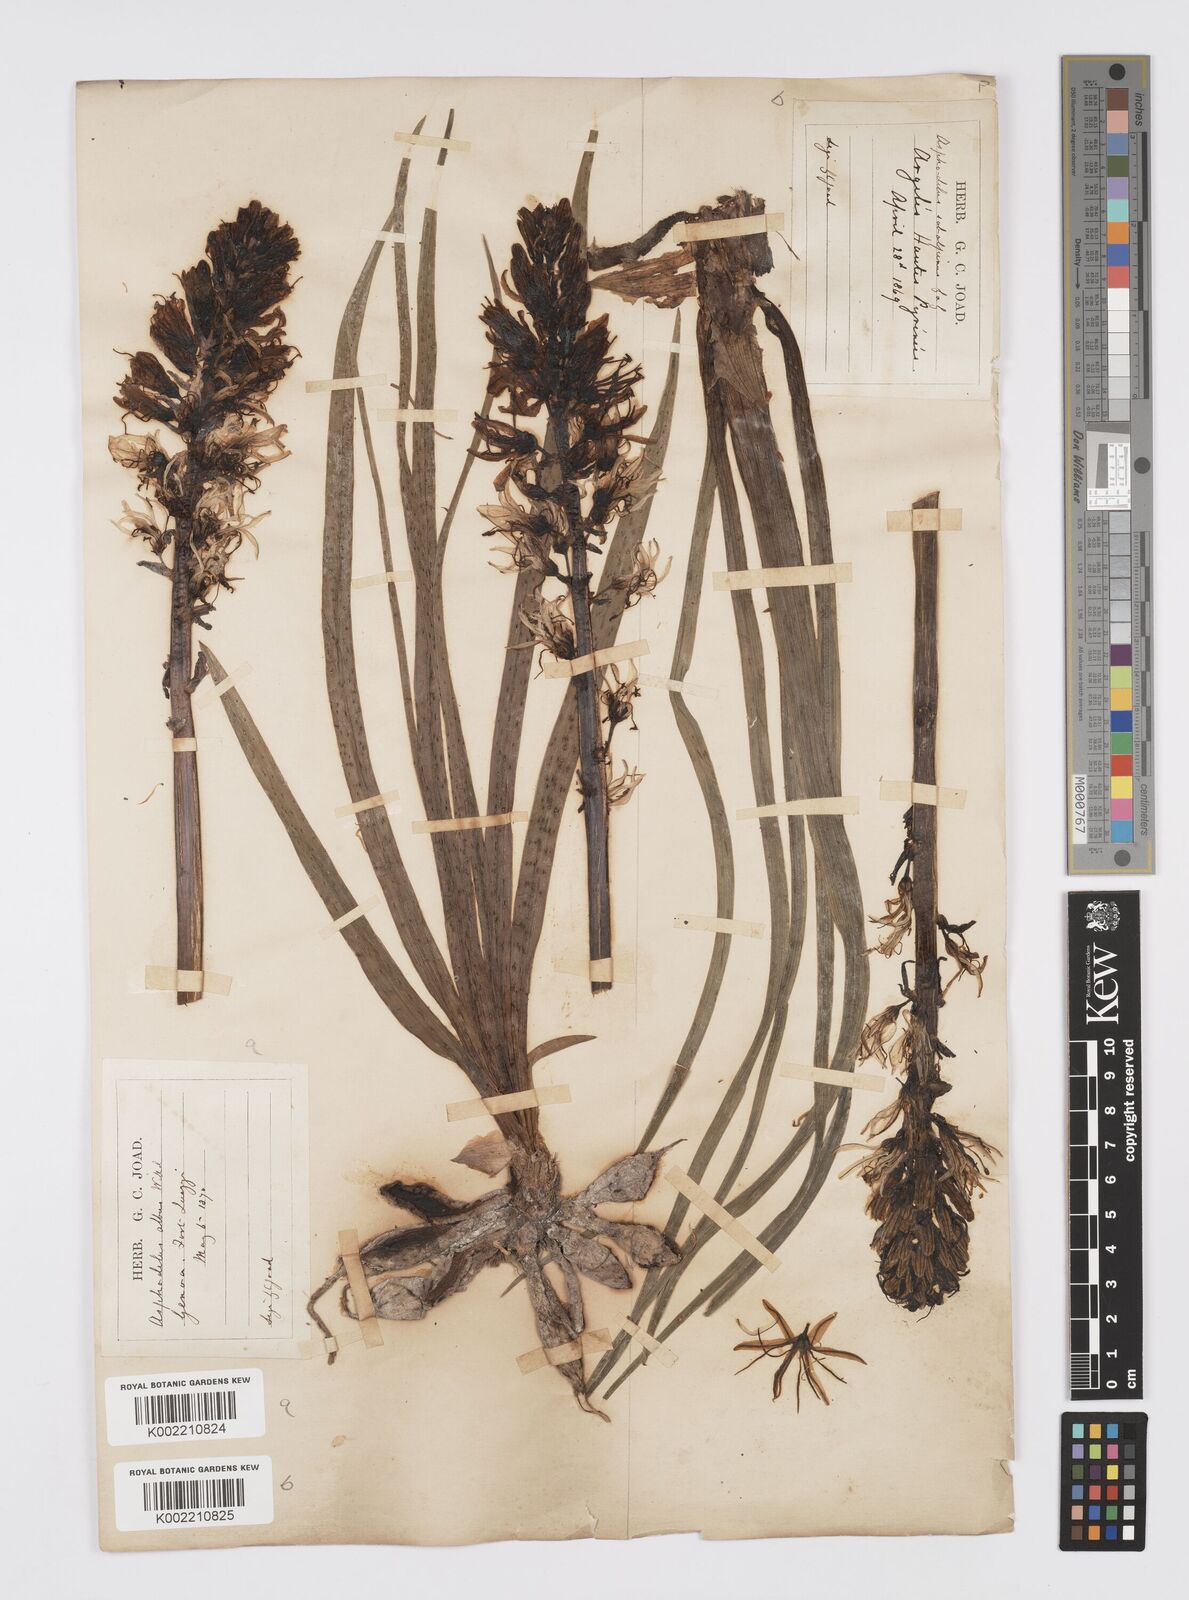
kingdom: Plantae
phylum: Tracheophyta
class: Liliopsida
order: Asparagales
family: Asphodelaceae
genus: Asphodelus
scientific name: Asphodelus albus
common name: White asphodel
